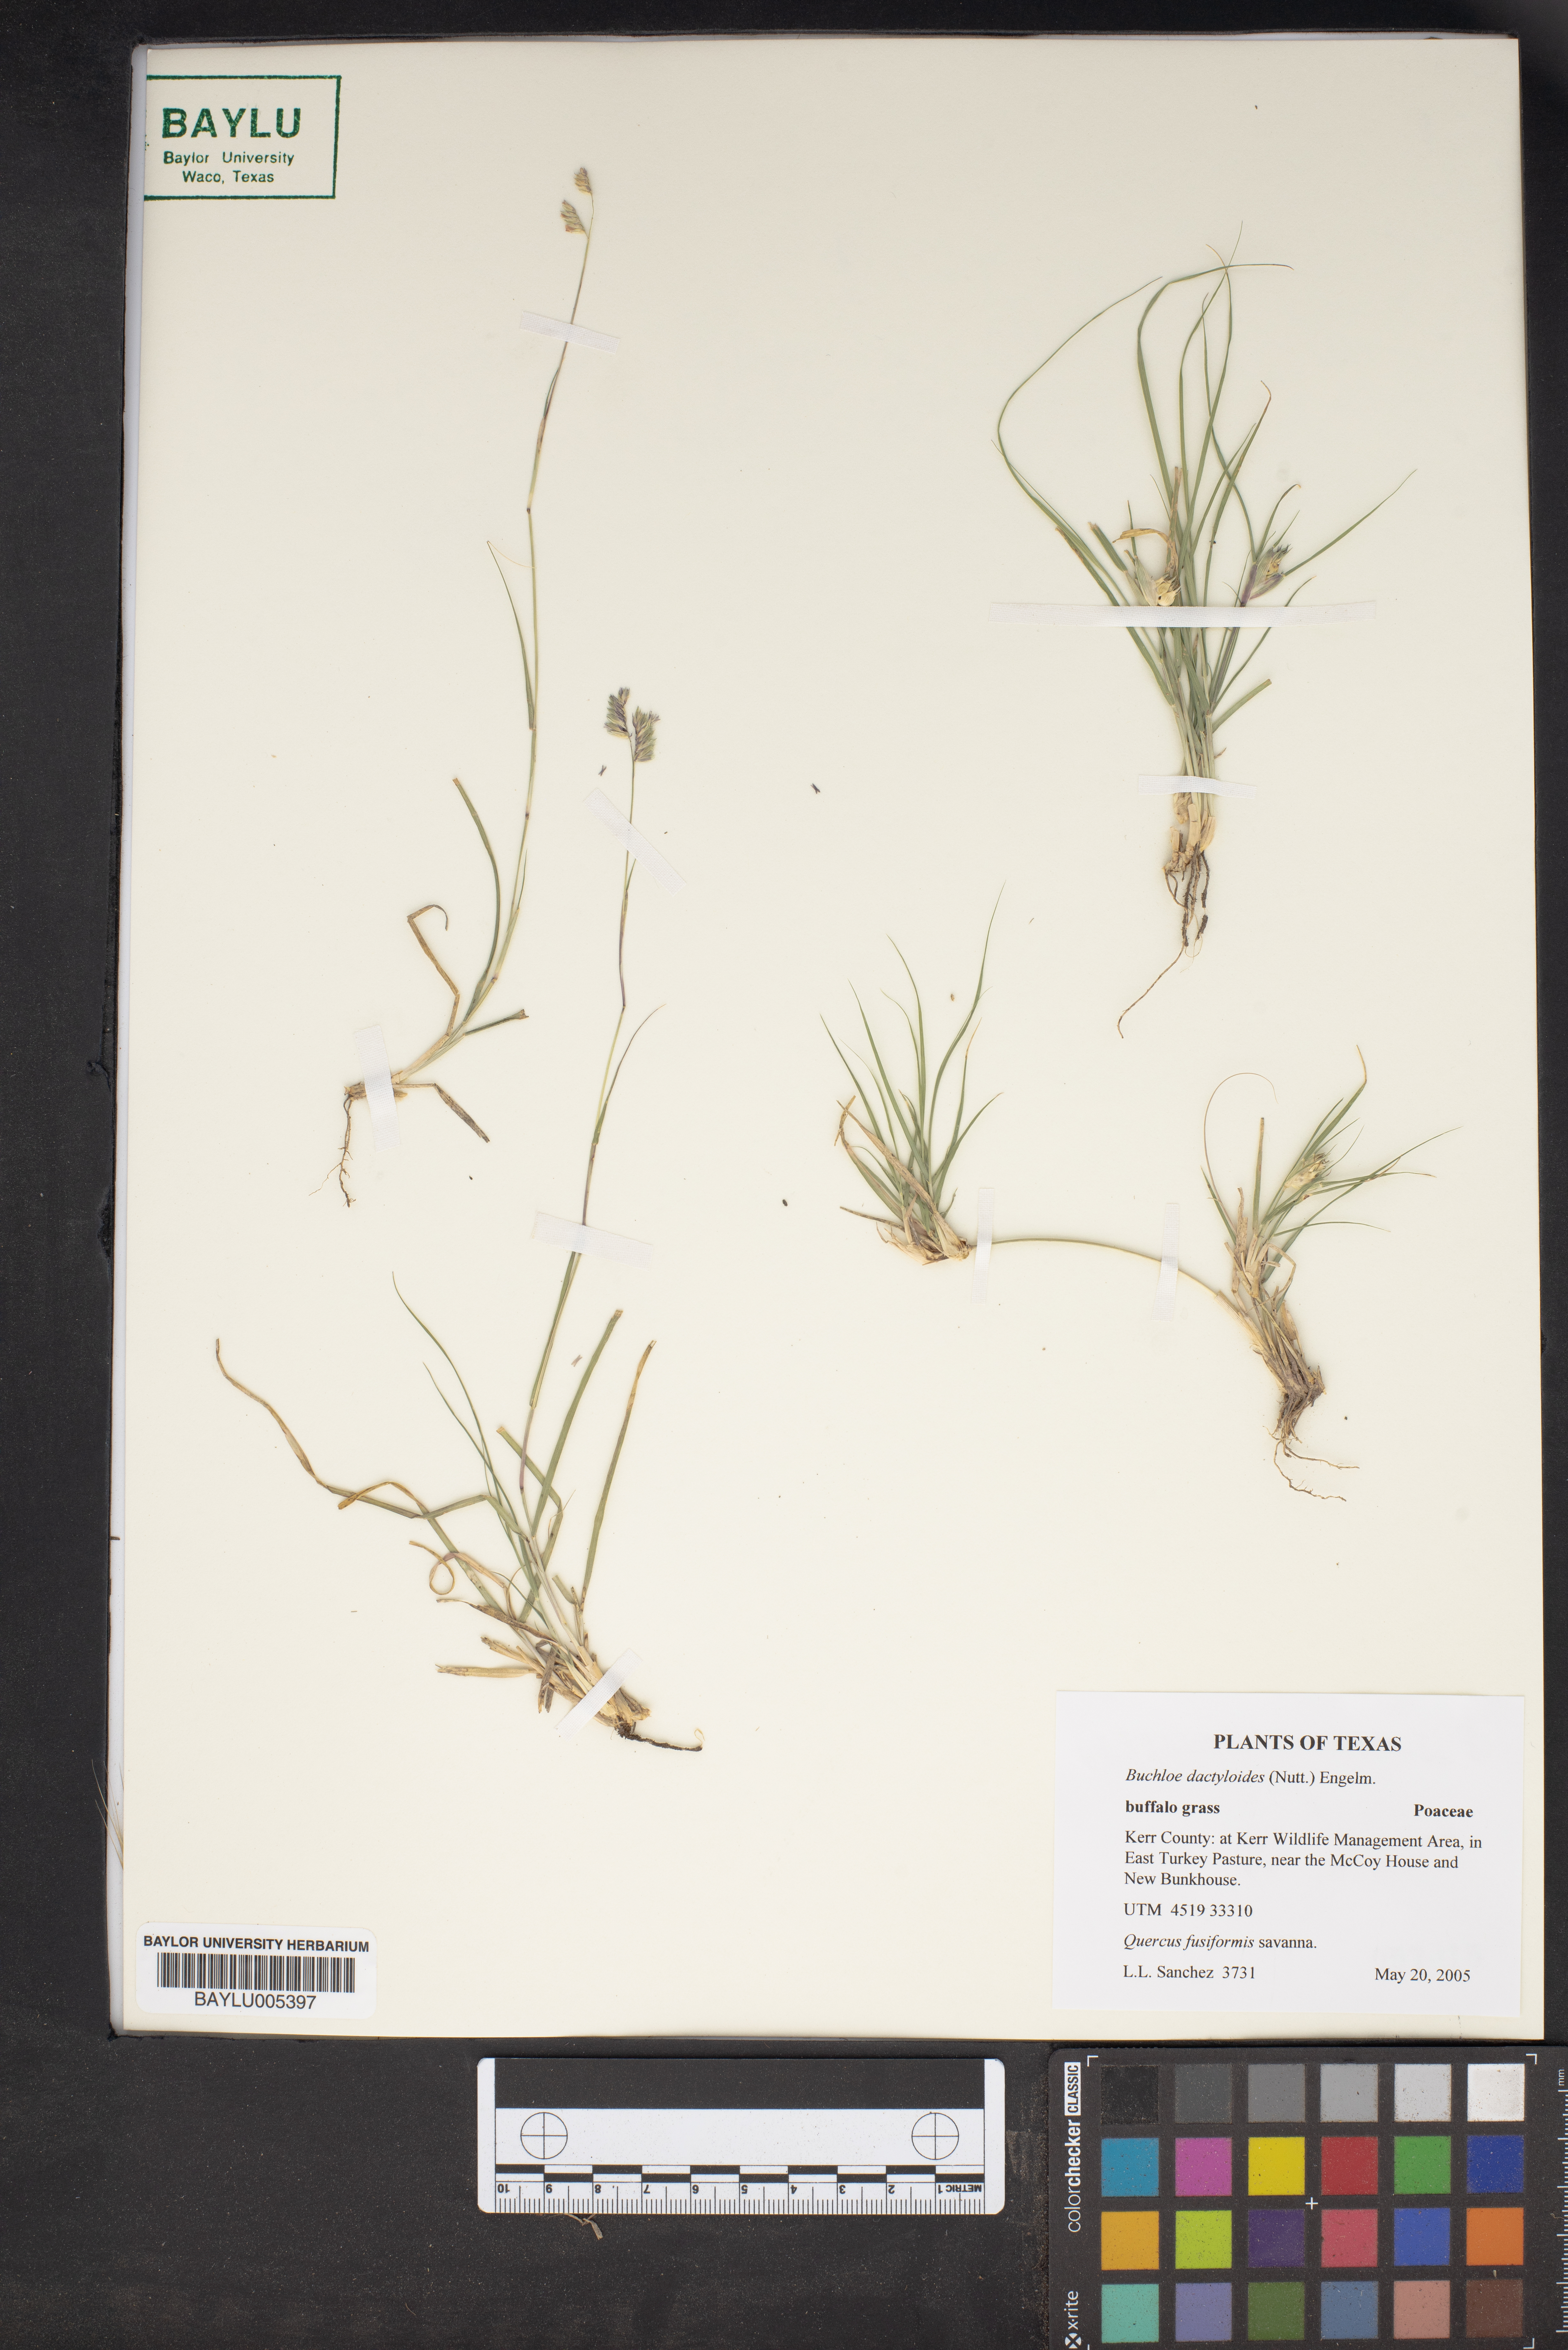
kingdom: Plantae
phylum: Tracheophyta
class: Liliopsida
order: Poales
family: Poaceae
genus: Bouteloua
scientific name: Bouteloua dactyloides
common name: Buffalo grass
